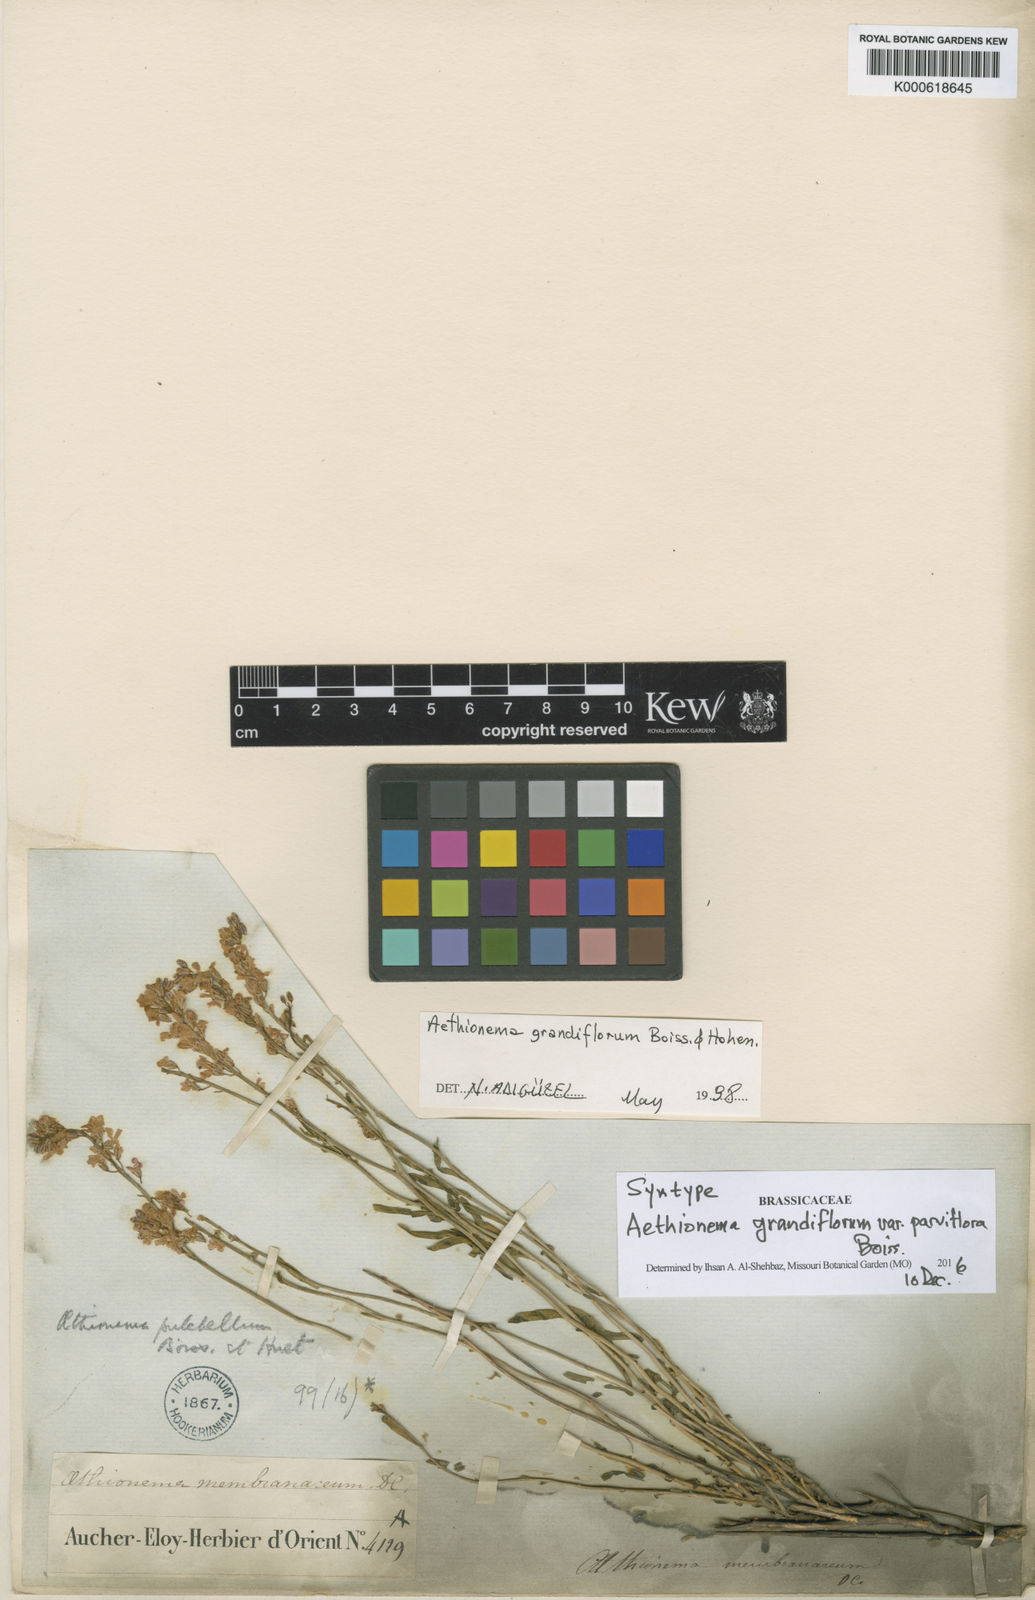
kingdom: Plantae
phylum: Tracheophyta
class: Magnoliopsida
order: Brassicales
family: Brassicaceae
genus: Aethionema
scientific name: Aethionema
